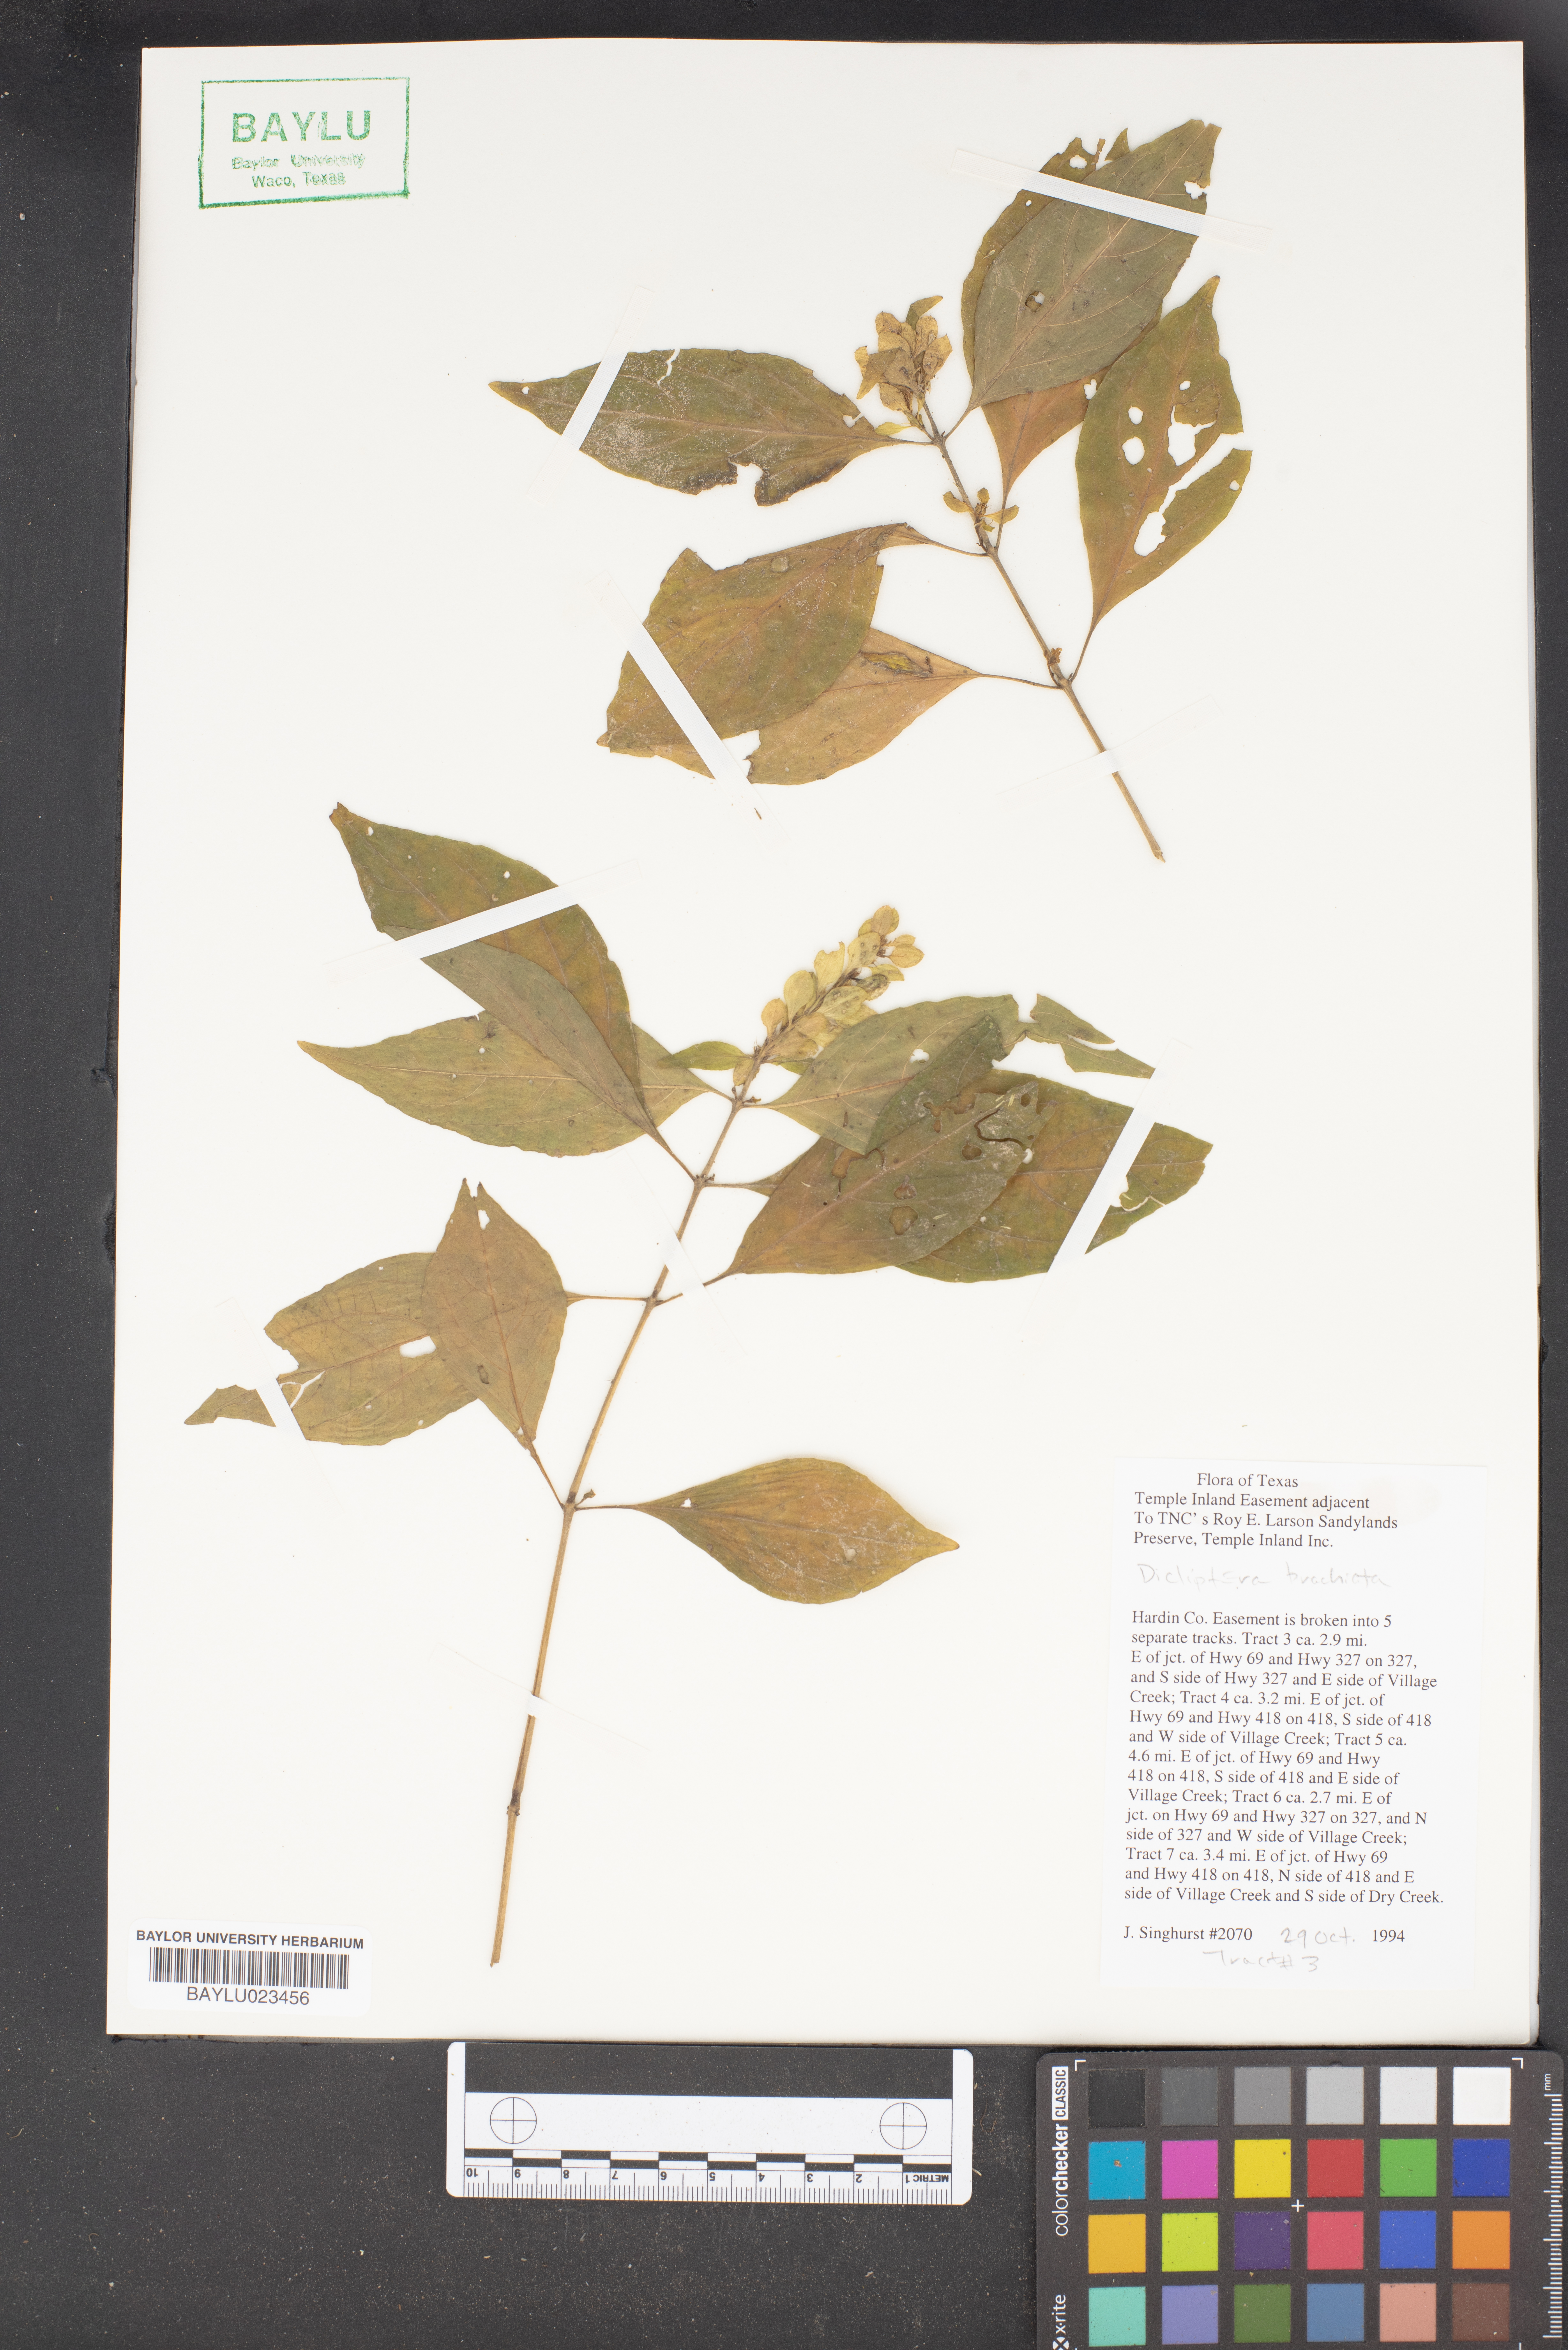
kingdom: Plantae
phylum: Tracheophyta
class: Magnoliopsida
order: Lamiales
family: Acanthaceae
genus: Dicliptera
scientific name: Dicliptera brachiata
